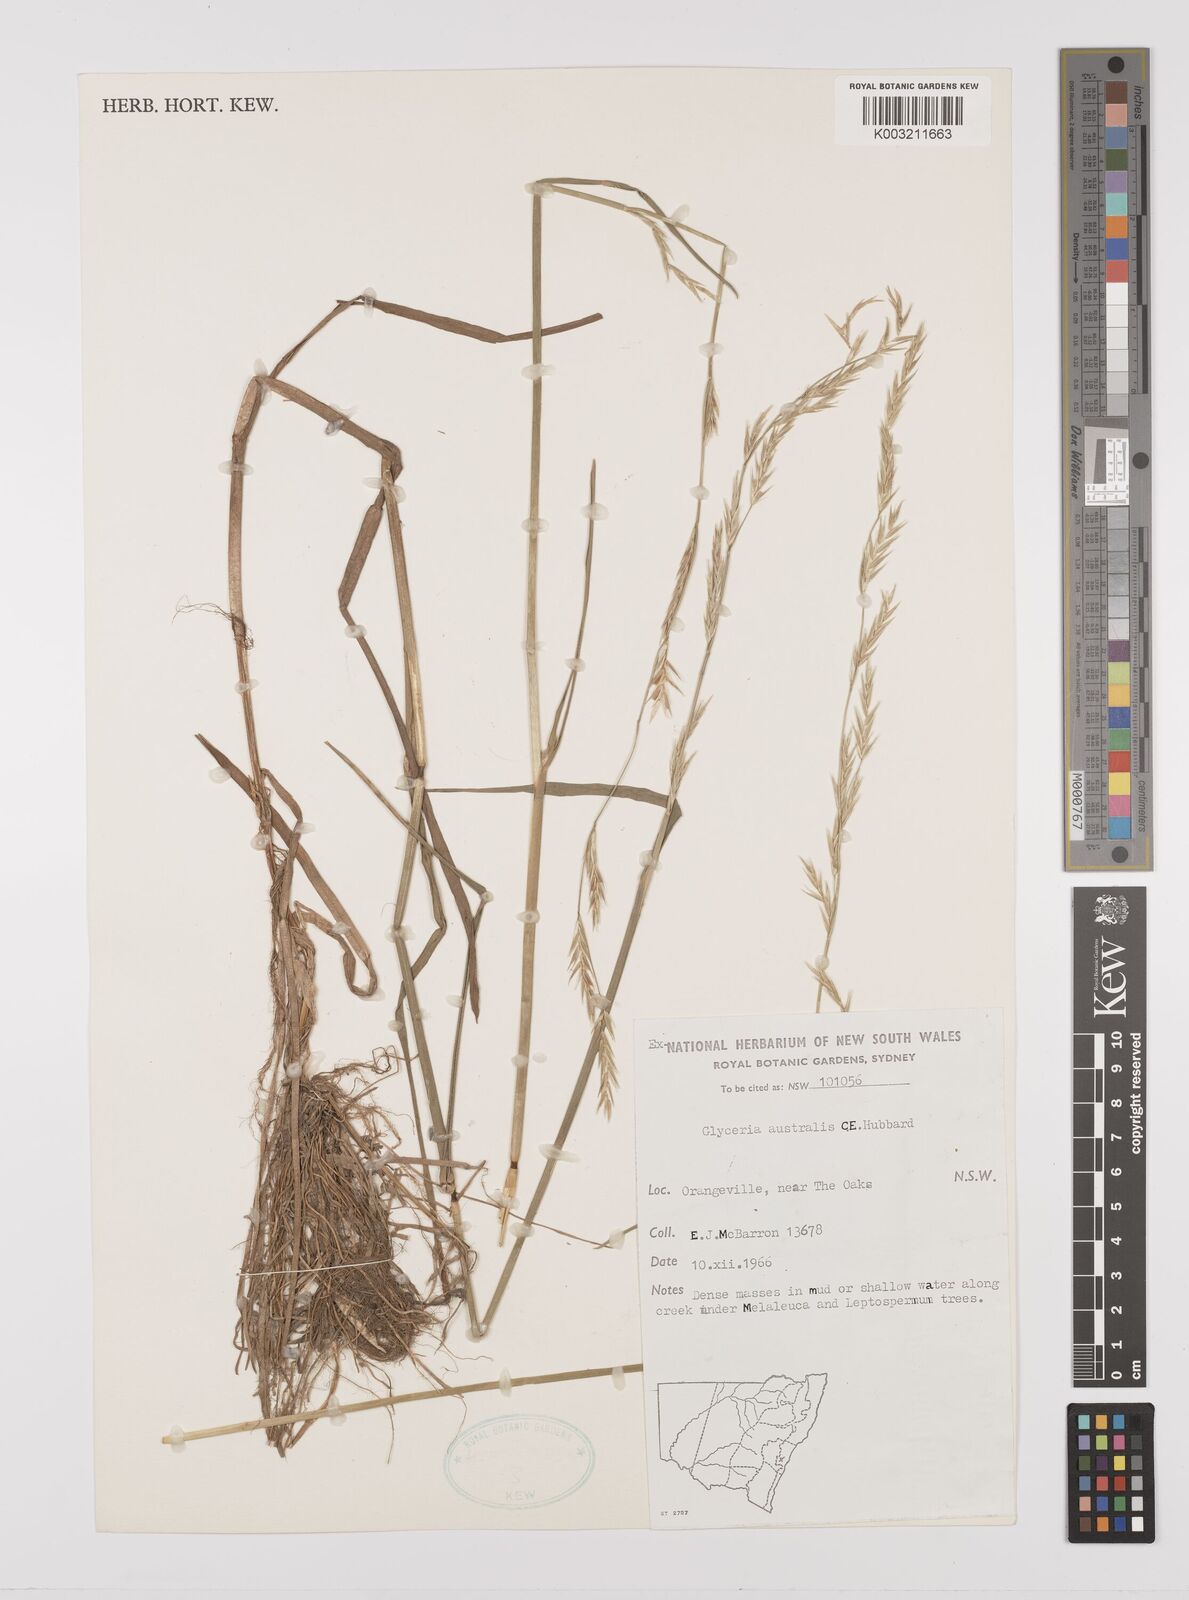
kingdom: Plantae
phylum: Tracheophyta
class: Liliopsida
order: Poales
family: Poaceae
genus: Glyceria
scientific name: Glyceria australis
